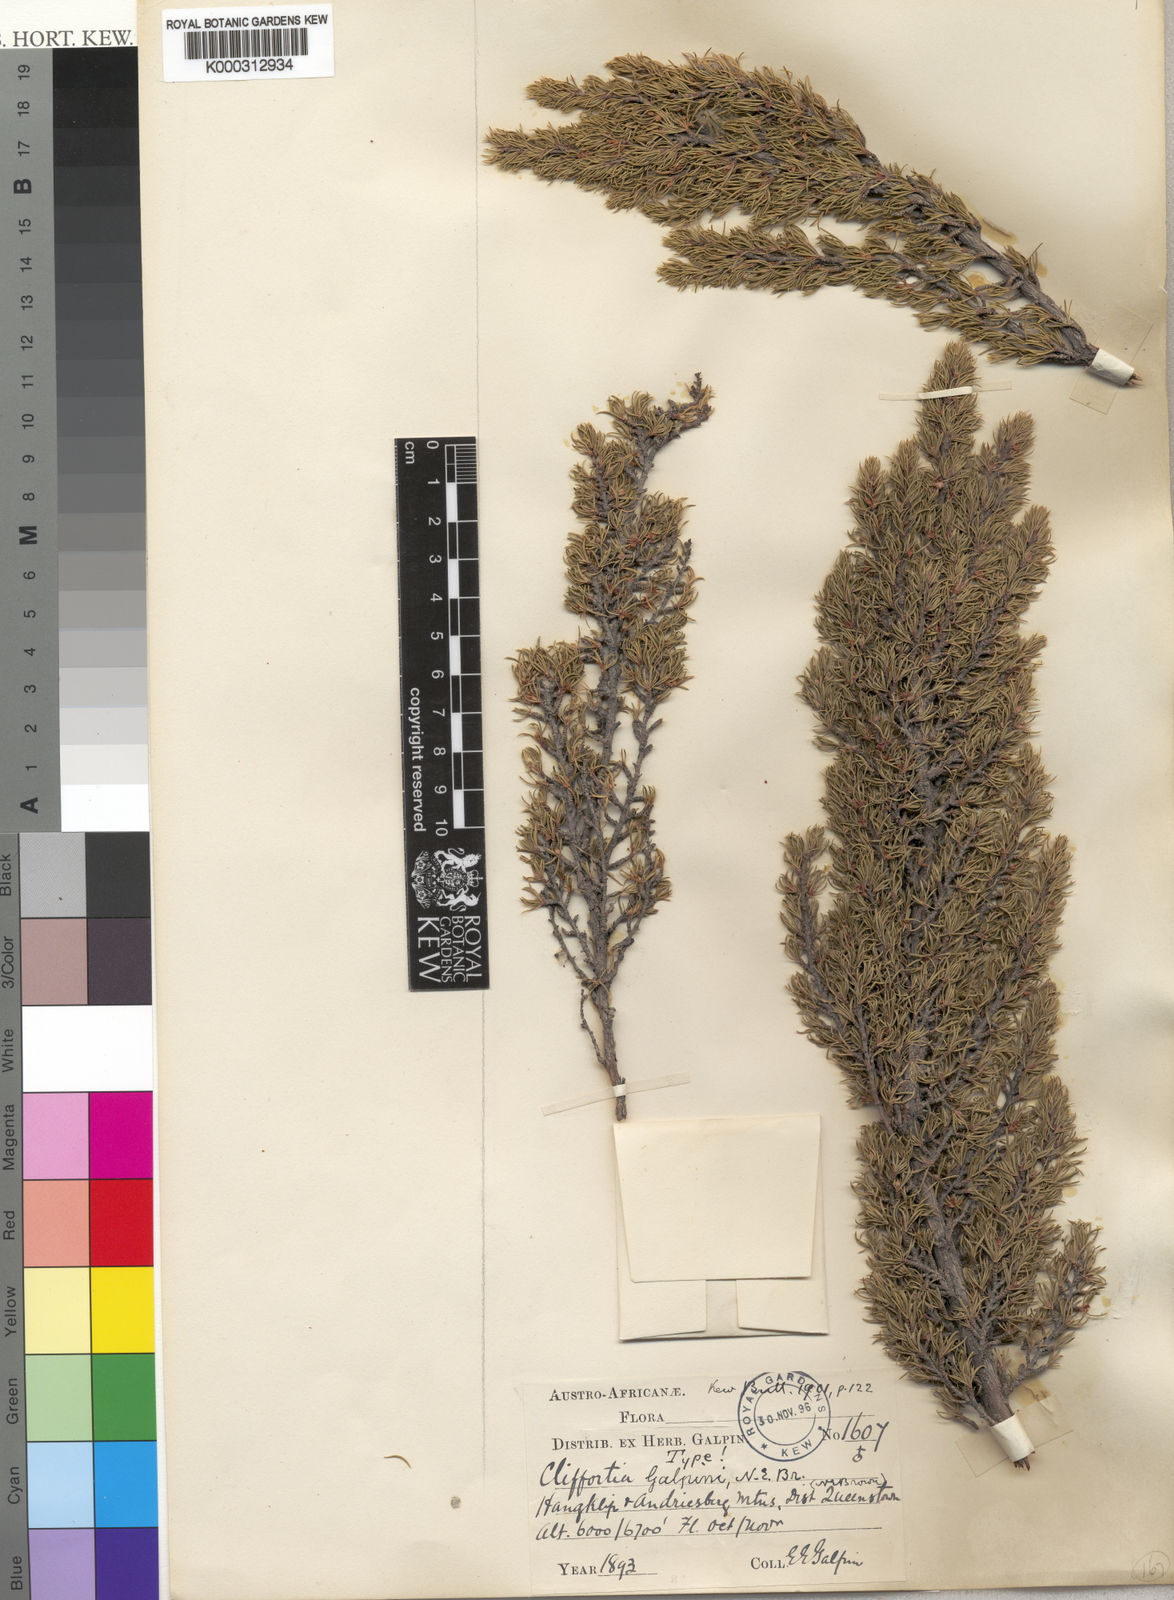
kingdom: Plantae
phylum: Tracheophyta
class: Magnoliopsida
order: Rosales
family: Rosaceae
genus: Cliffortia
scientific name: Cliffortia paucistaminea
